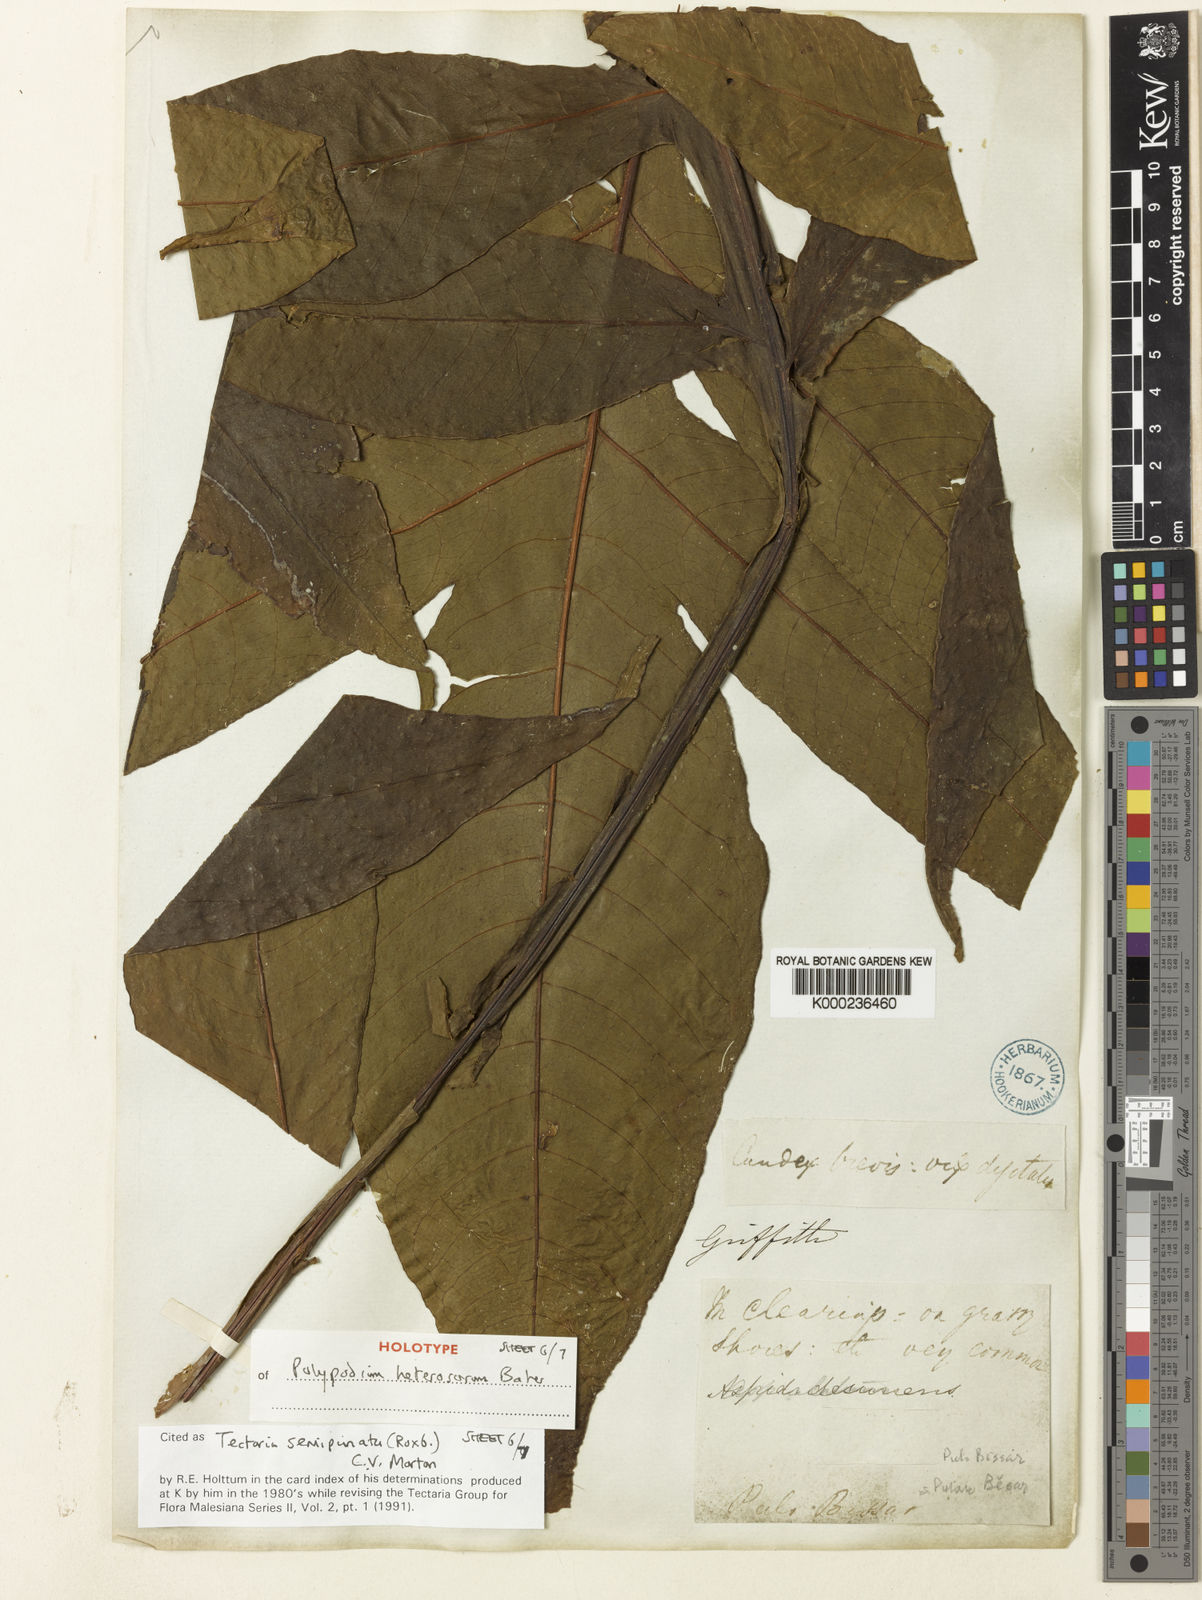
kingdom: Plantae
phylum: Tracheophyta
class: Polypodiopsida
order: Polypodiales
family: Tectariaceae
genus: Tectaria
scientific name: Tectaria semipinnata
